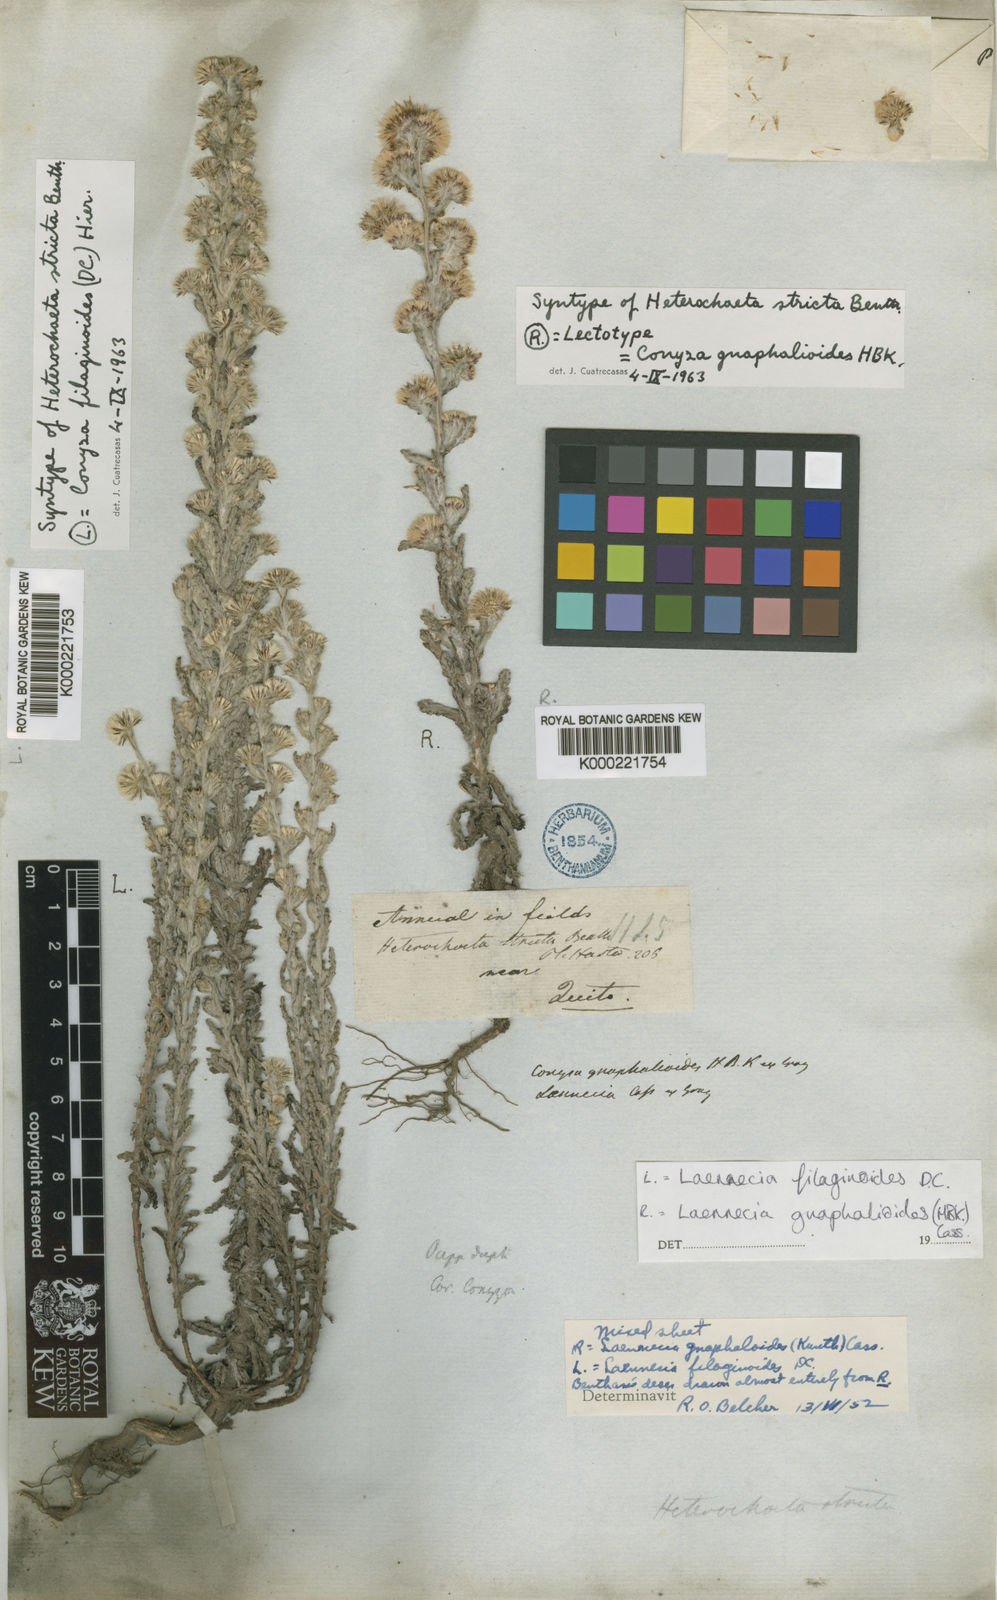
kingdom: Plantae
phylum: Tracheophyta
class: Magnoliopsida
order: Asterales
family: Asteraceae
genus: Laennecia
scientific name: Laennecia gnaphalioides
